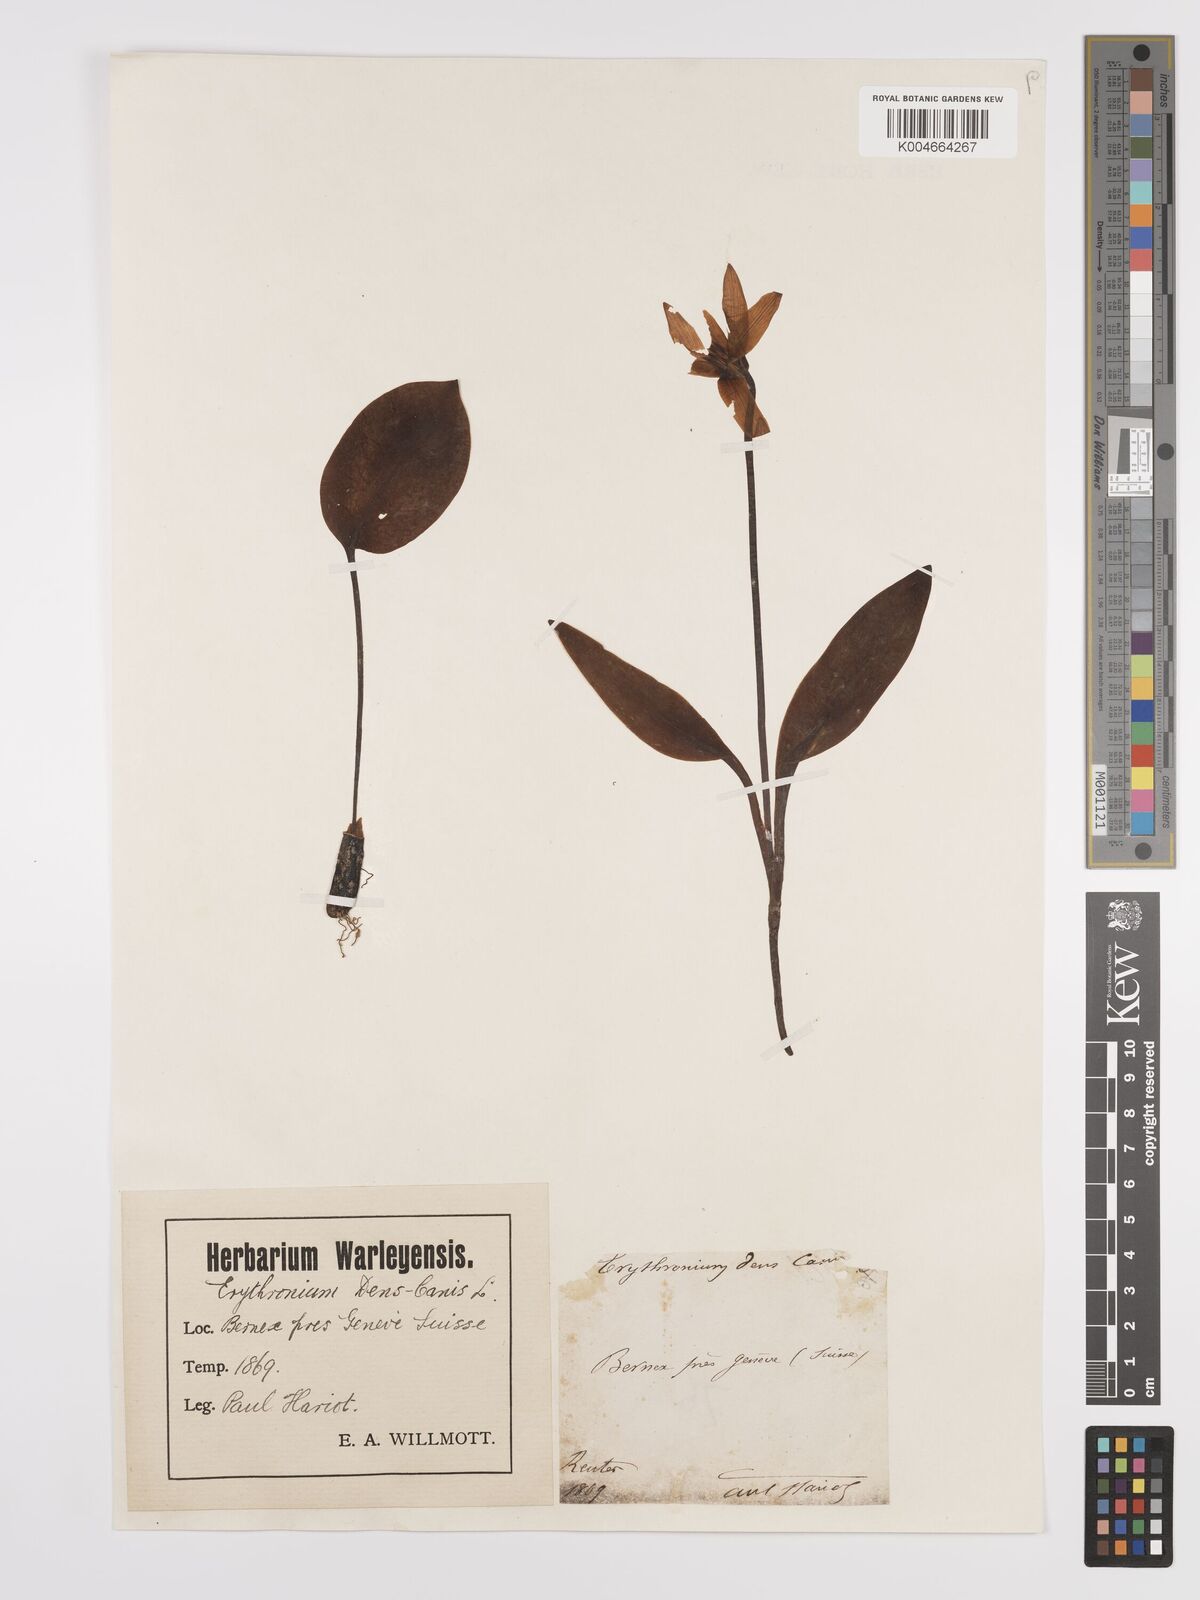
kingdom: Plantae
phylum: Tracheophyta
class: Liliopsida
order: Liliales
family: Liliaceae
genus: Erythronium
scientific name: Erythronium dens-canis
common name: Dog's-tooth-violet
